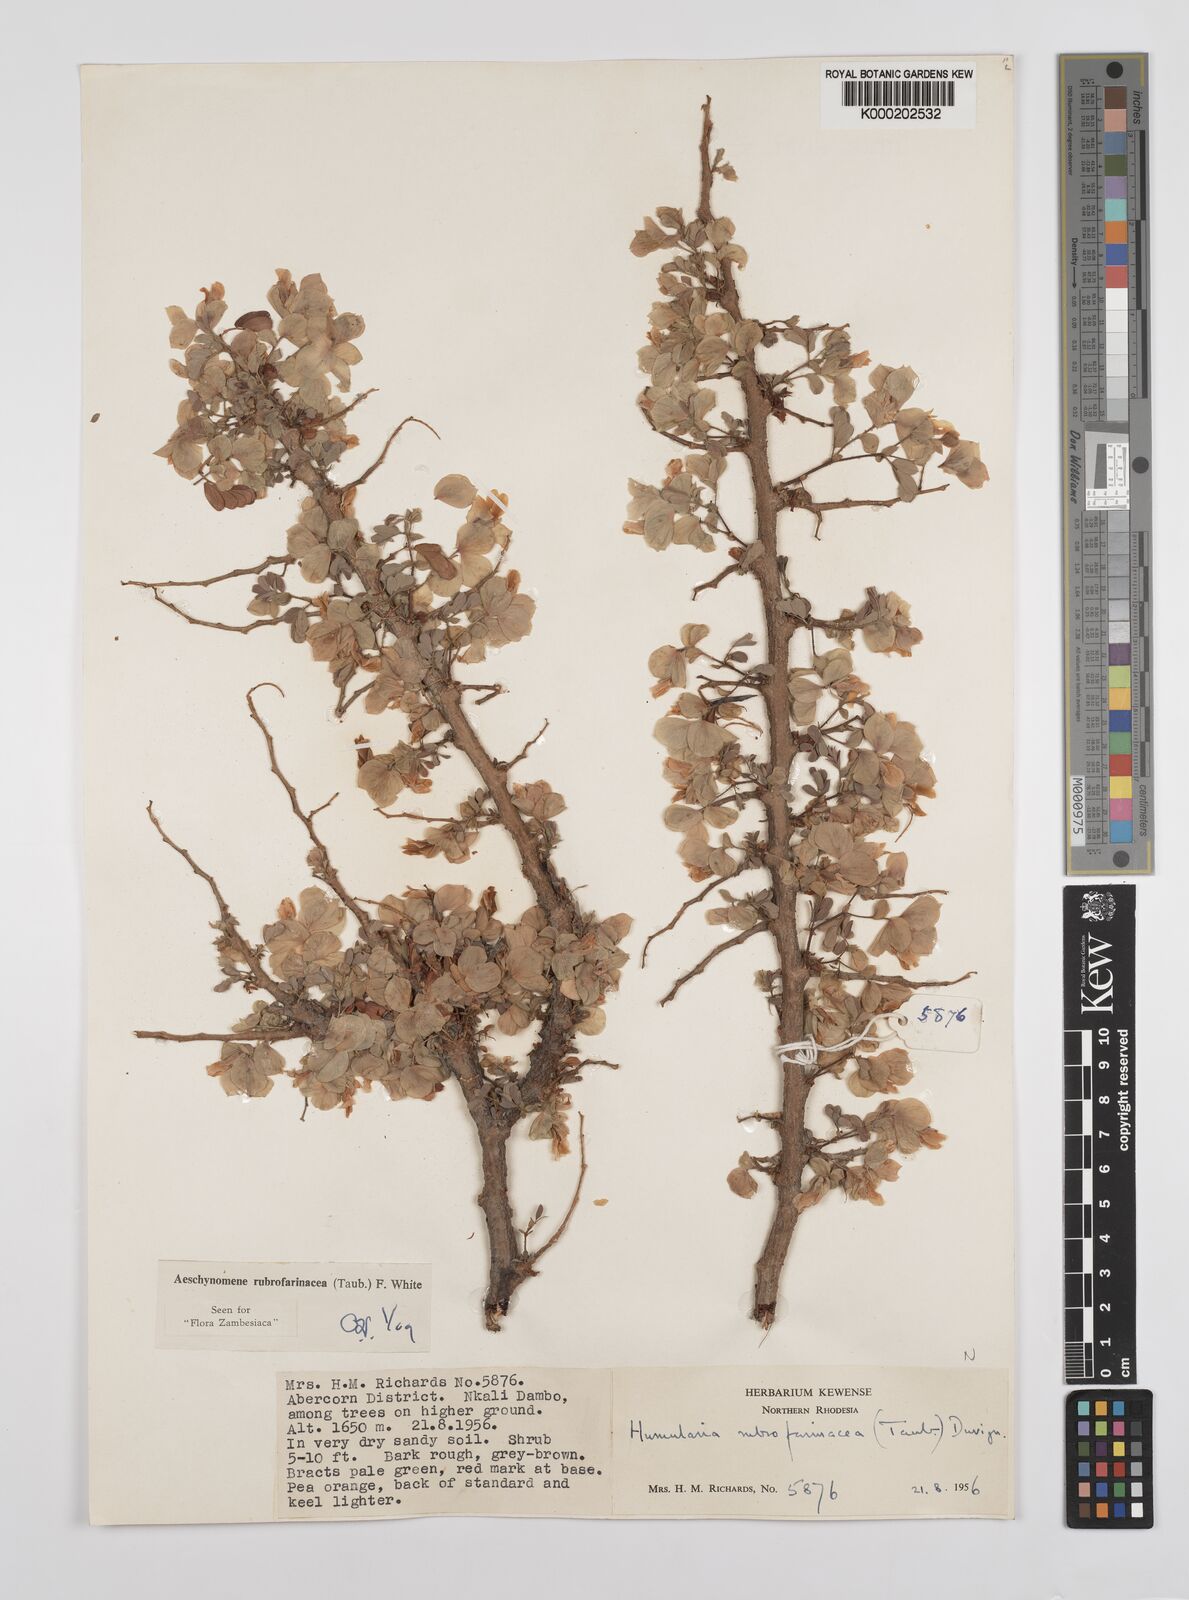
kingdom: Plantae
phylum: Tracheophyta
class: Magnoliopsida
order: Fabales
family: Fabaceae
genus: Aeschynomene
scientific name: Aeschynomene rubrofarinacea
